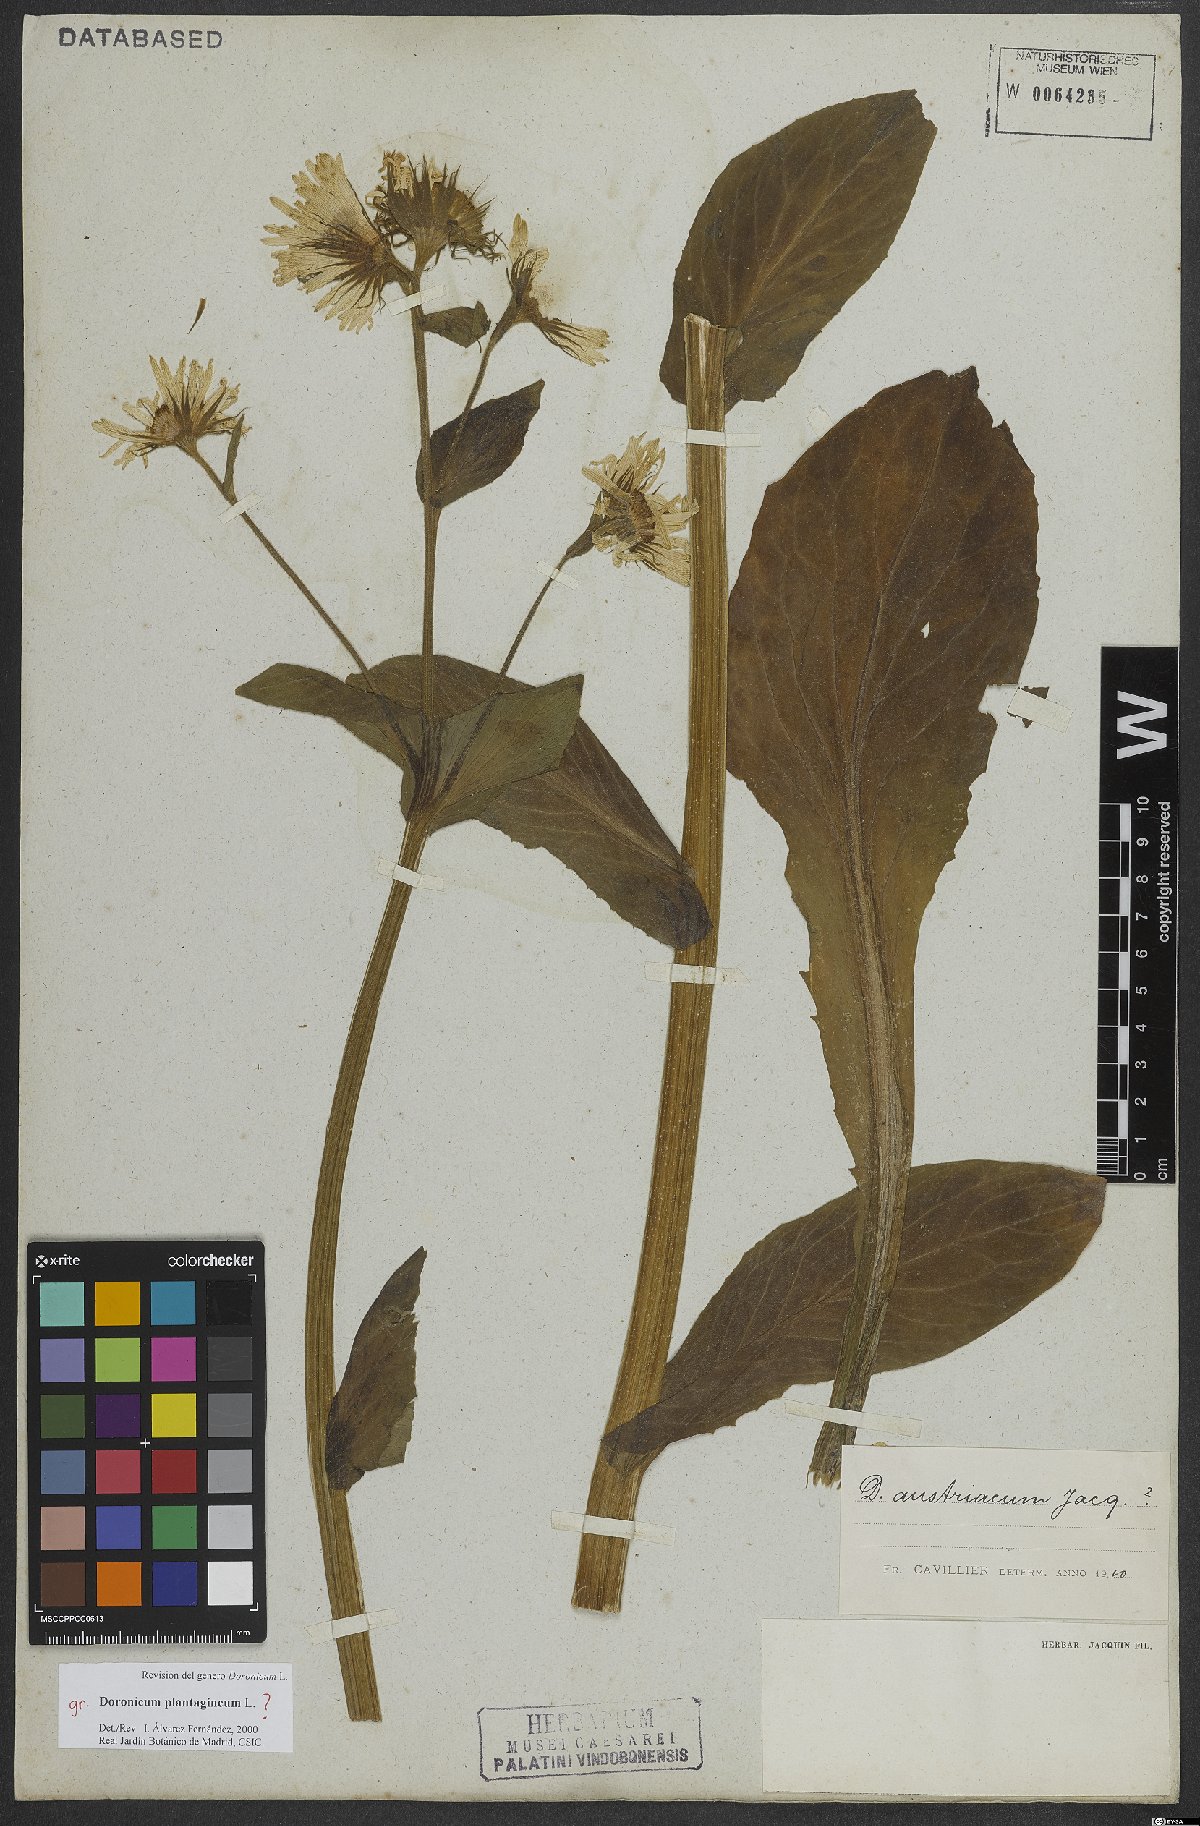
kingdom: Plantae
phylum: Tracheophyta
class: Magnoliopsida
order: Asterales
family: Asteraceae
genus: Doronicum
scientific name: Doronicum plantagineum
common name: Plantain-leaved leopard's-bane
